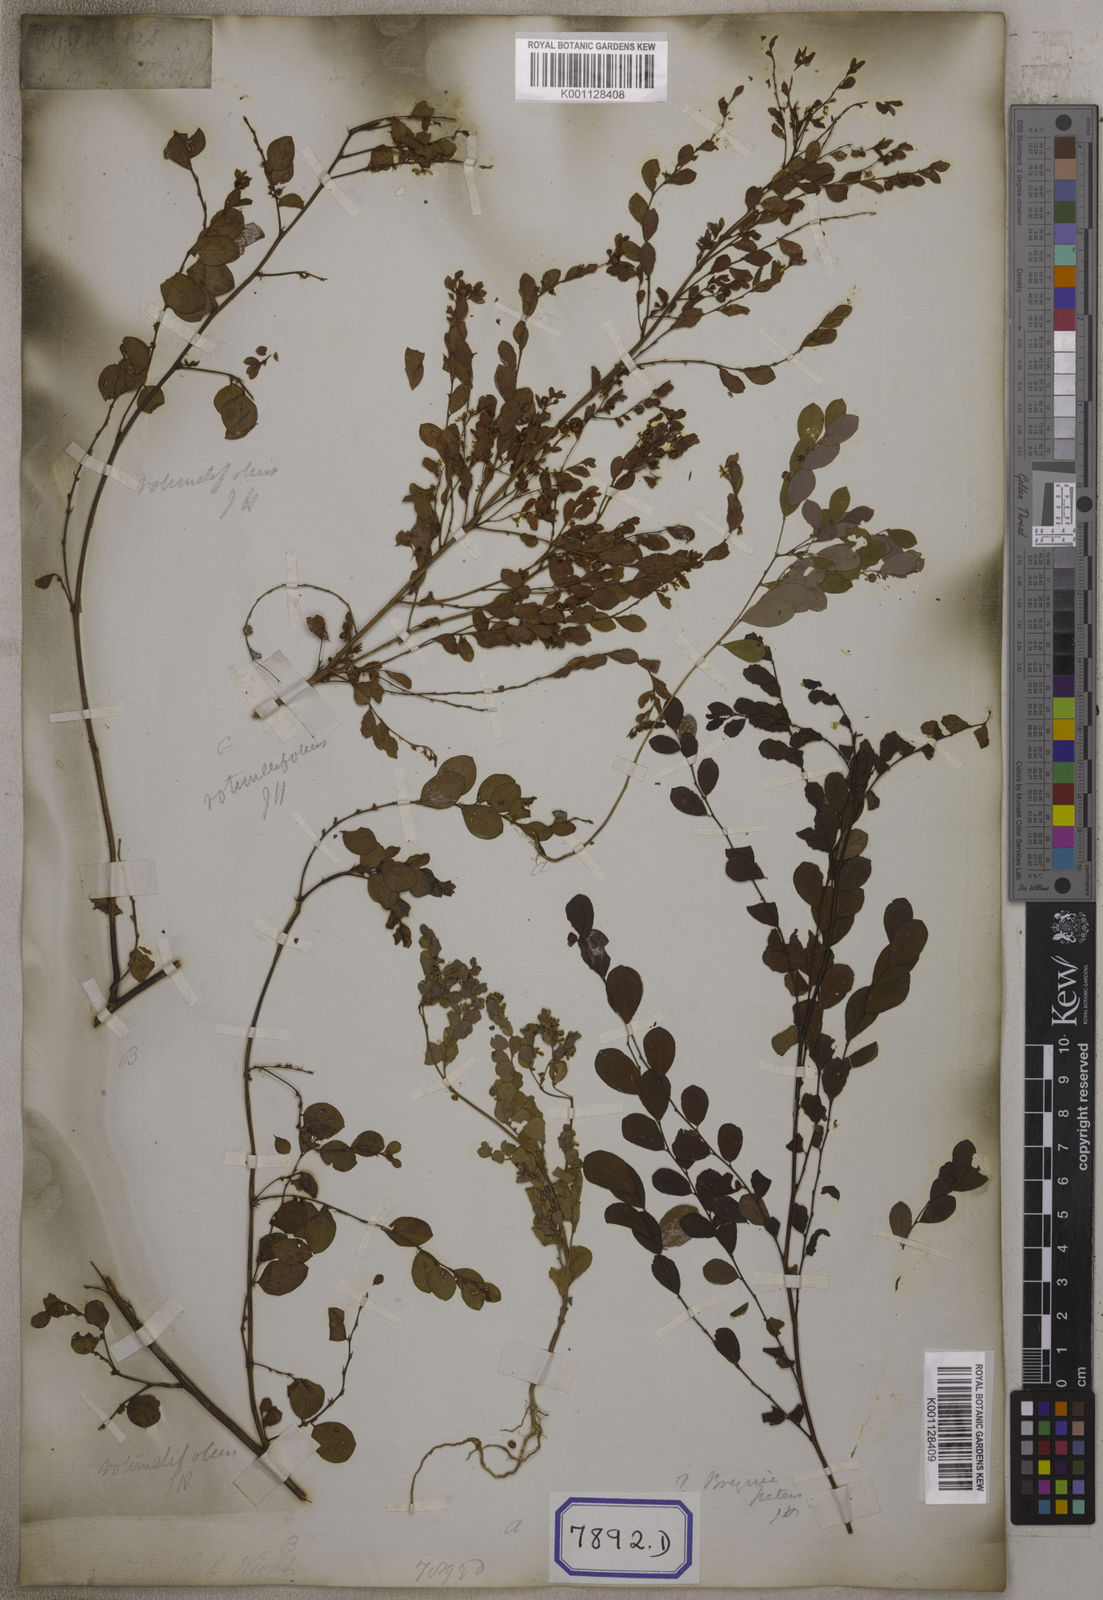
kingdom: Plantae
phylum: Tracheophyta
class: Magnoliopsida
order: Malpighiales
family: Euphorbiaceae
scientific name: Euphorbiaceae
